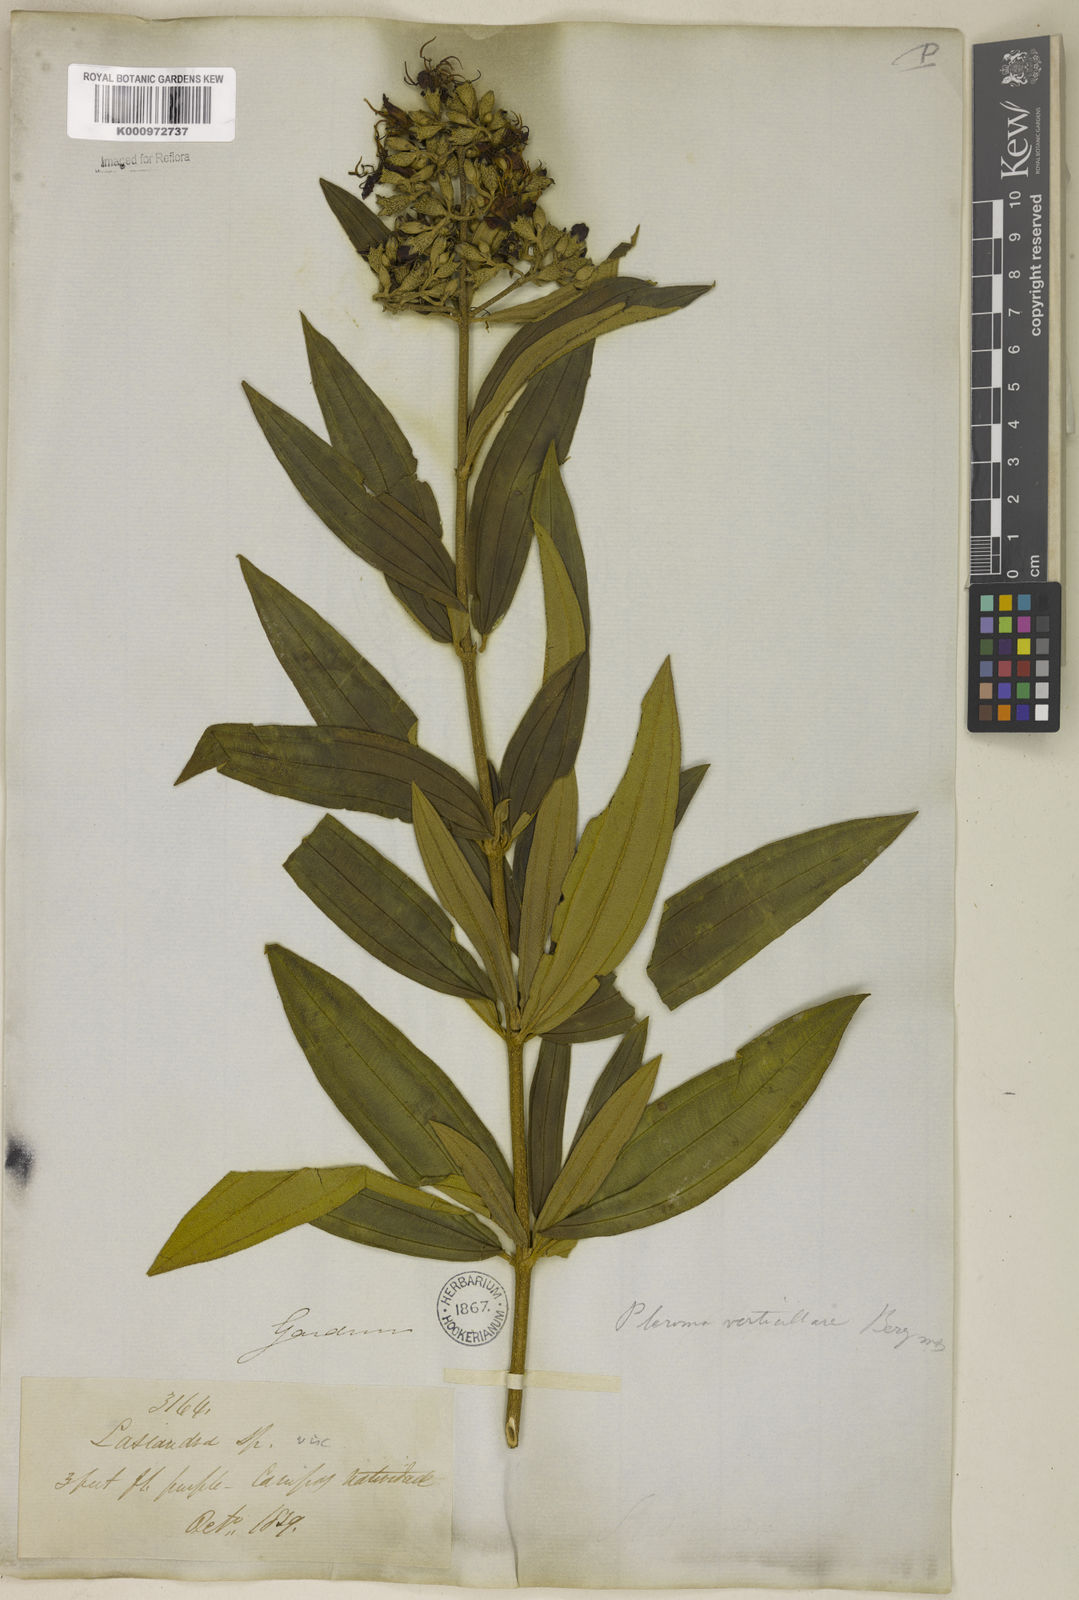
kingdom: Plantae
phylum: Tracheophyta
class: Magnoliopsida
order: Myrtales
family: Melastomataceae
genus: Tibouchina
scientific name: Tibouchina verticillaris
